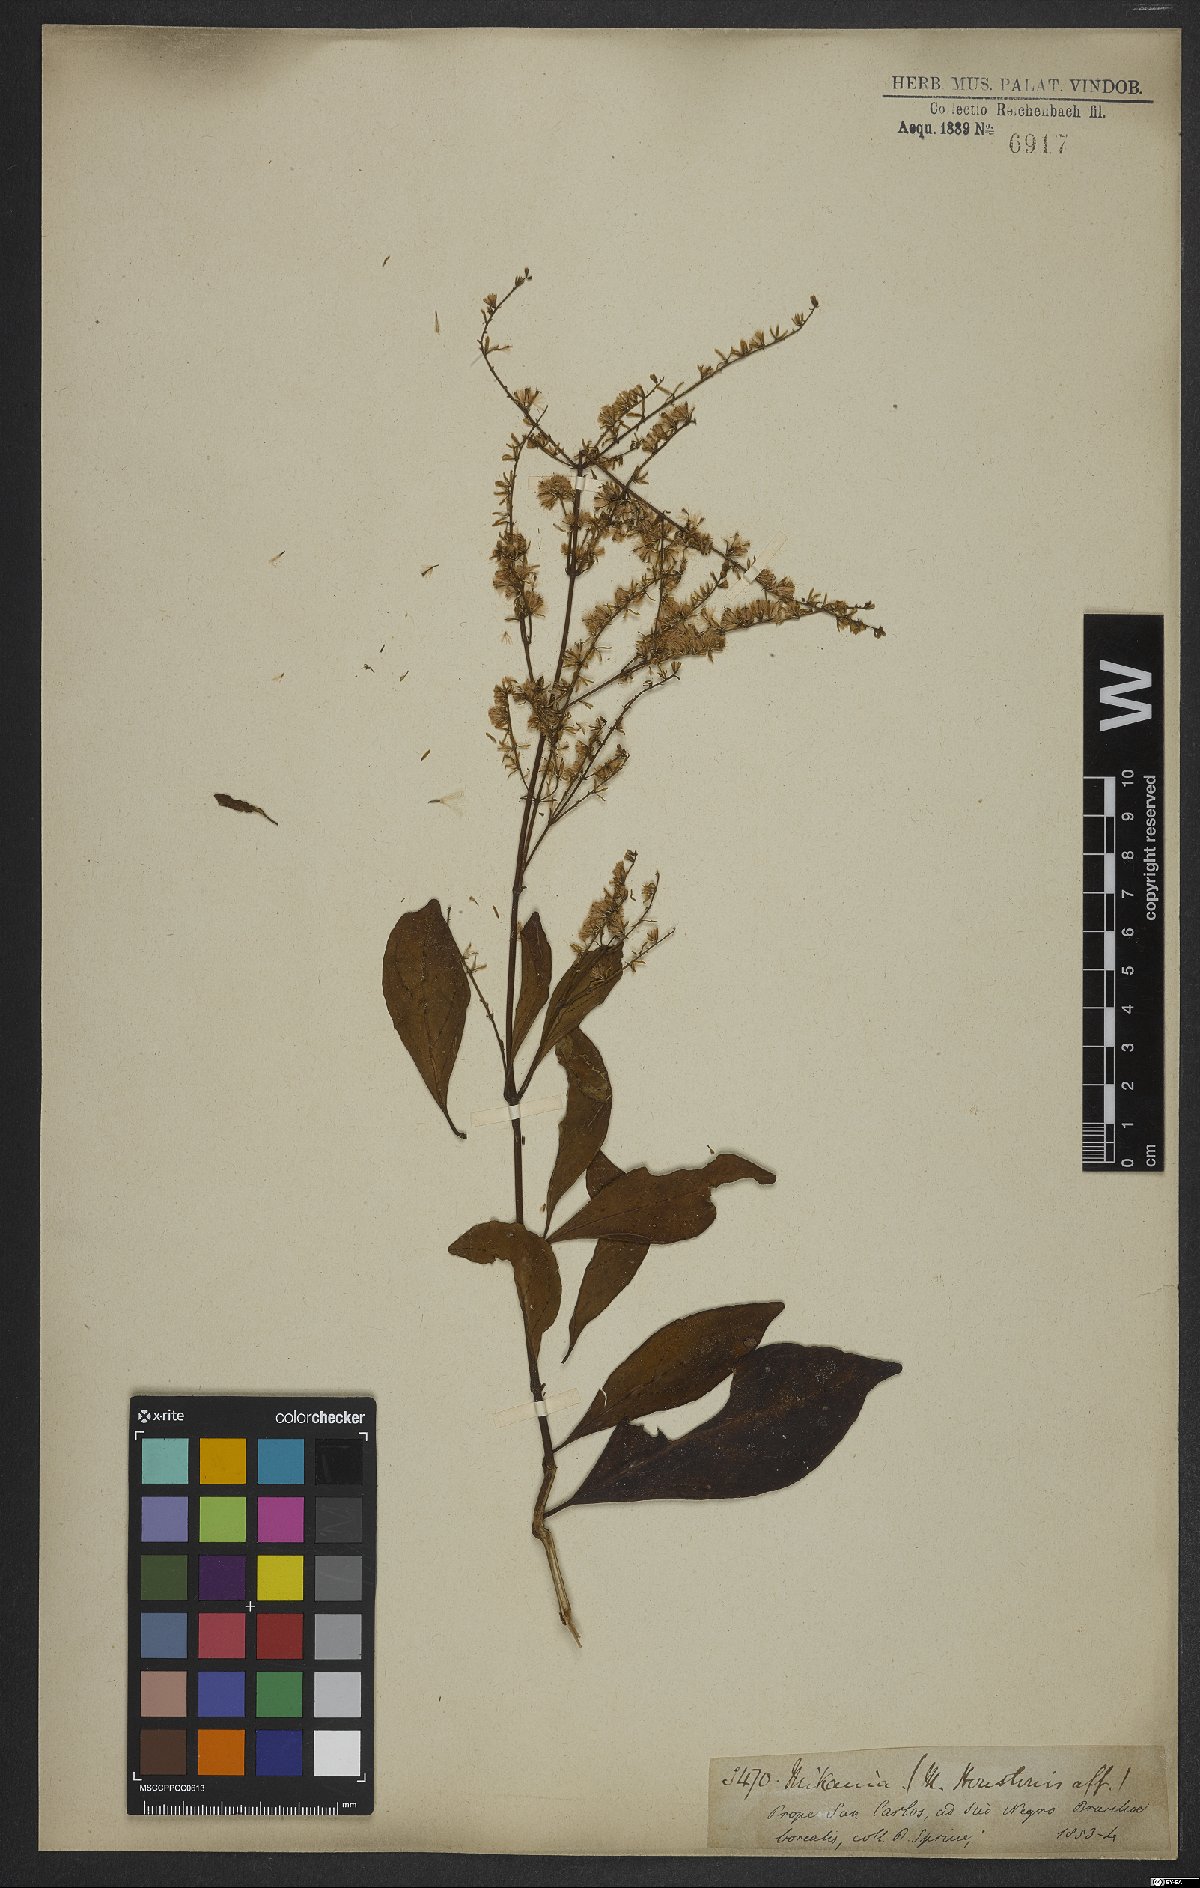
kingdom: Plantae
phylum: Tracheophyta
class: Magnoliopsida
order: Asterales
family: Asteraceae
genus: Mikania
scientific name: Mikania
